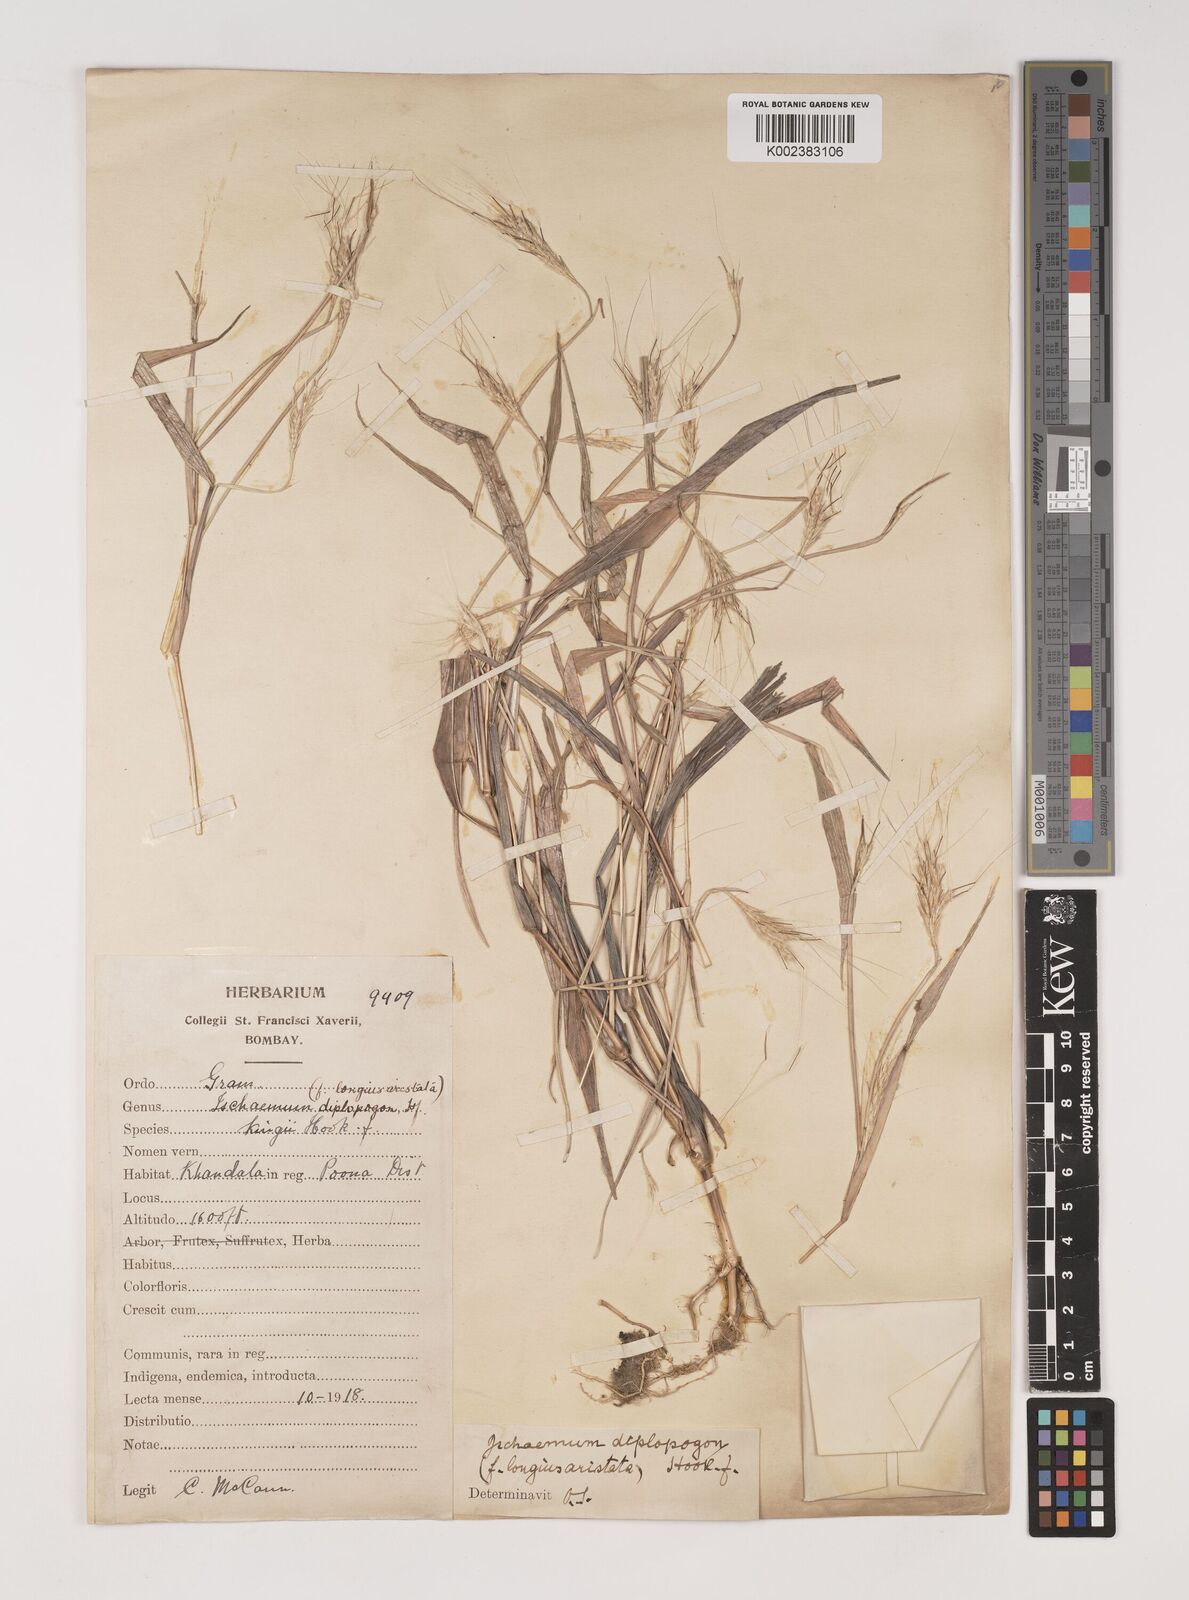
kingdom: Plantae
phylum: Tracheophyta
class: Liliopsida
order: Poales
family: Poaceae
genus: Ischaemum
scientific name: Ischaemum diplopogon
